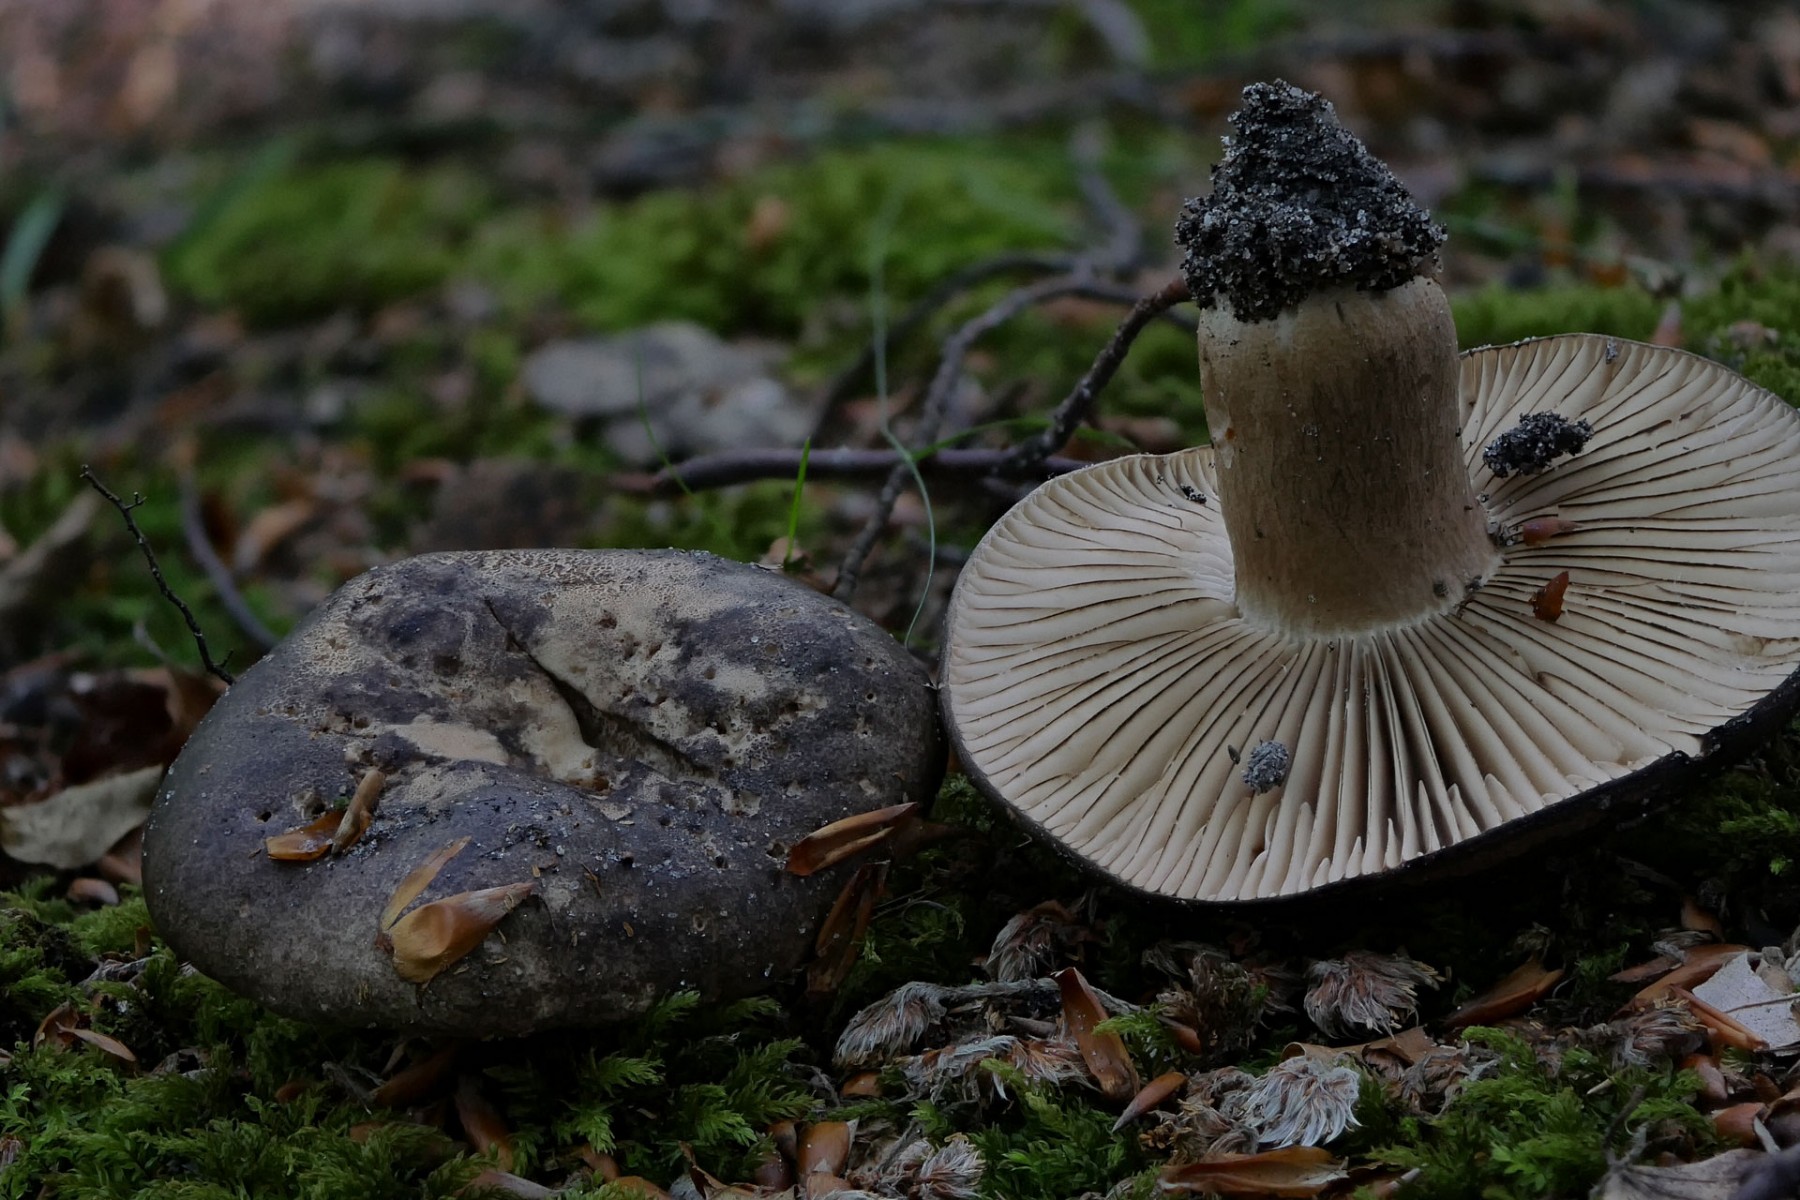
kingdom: Fungi
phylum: Basidiomycota
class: Agaricomycetes
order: Russulales
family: Russulaceae
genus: Russula
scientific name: Russula adusta
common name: sværtende skørhat
